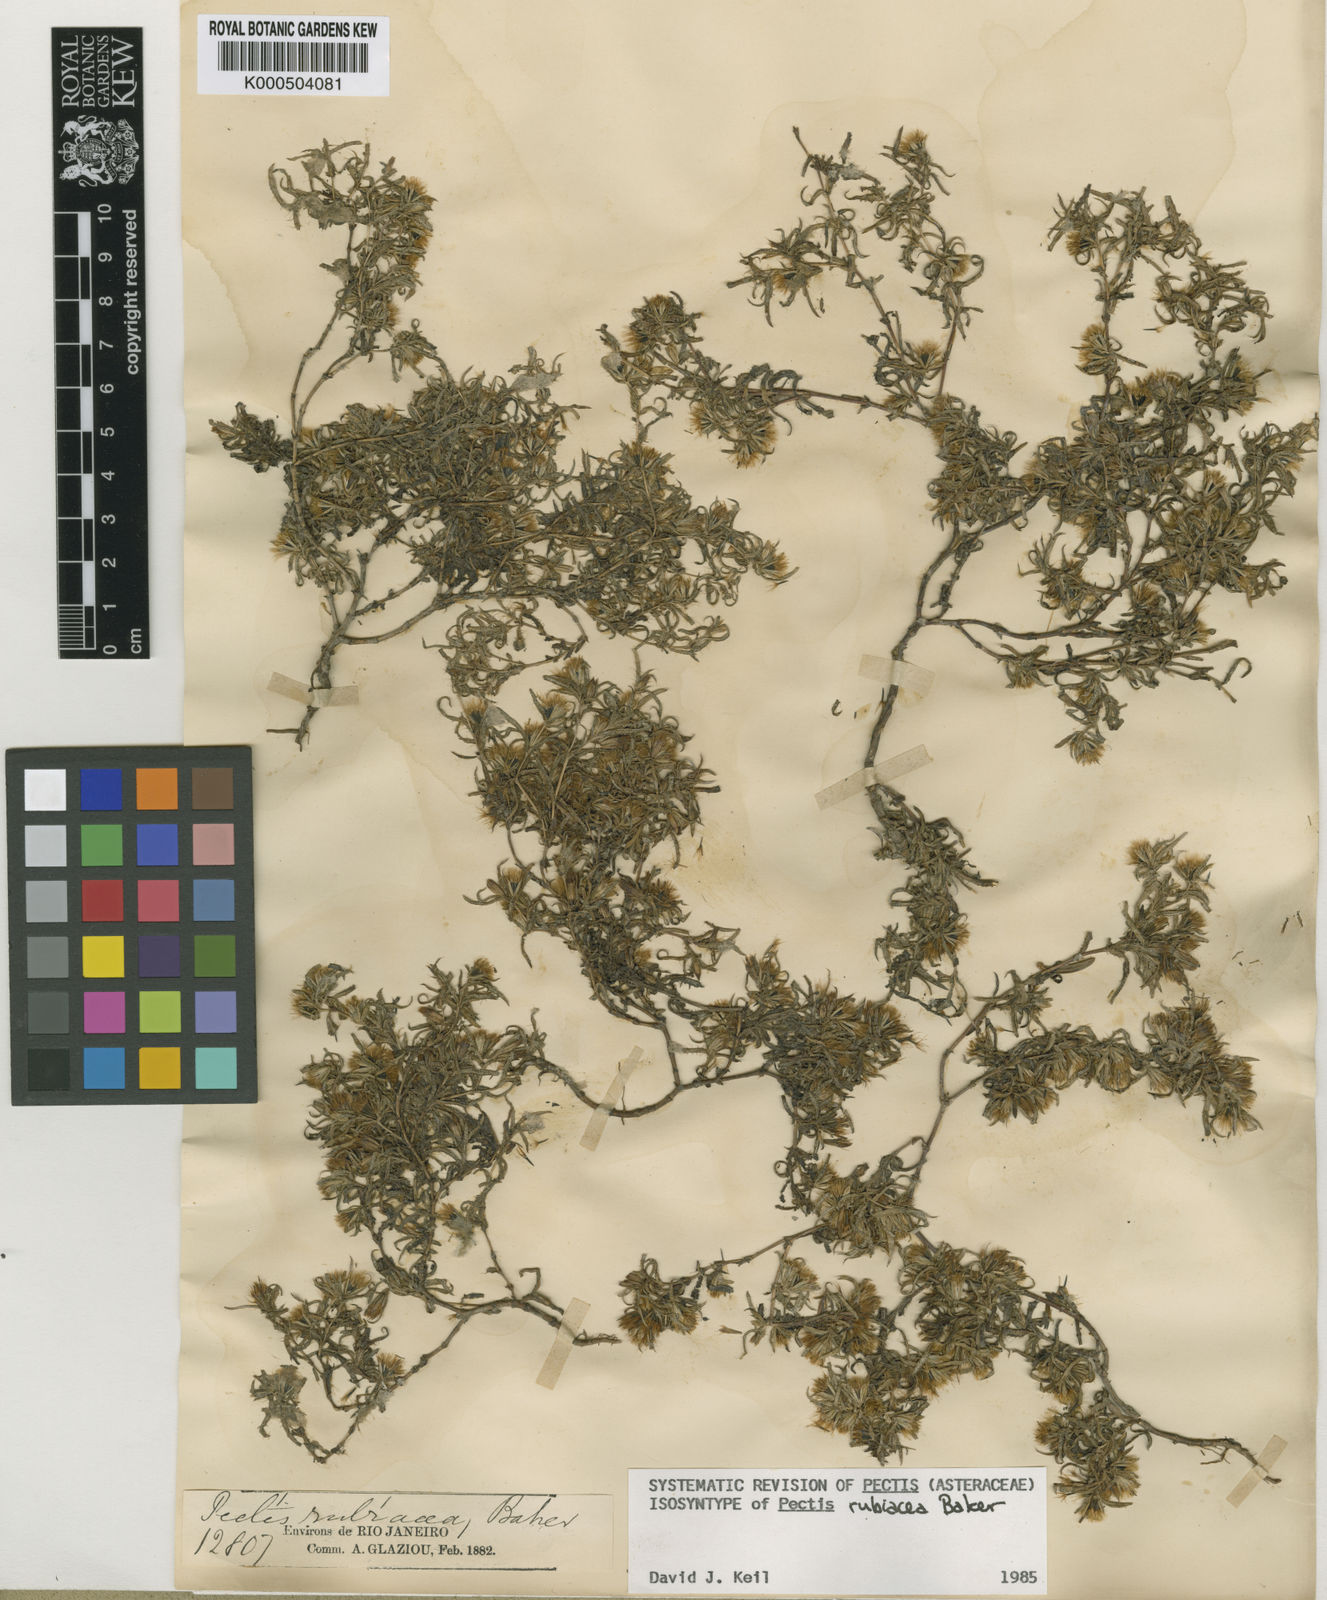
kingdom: Plantae
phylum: Tracheophyta
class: Magnoliopsida
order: Asterales
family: Asteraceae
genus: Pectis
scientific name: Pectis brevipedunculata
